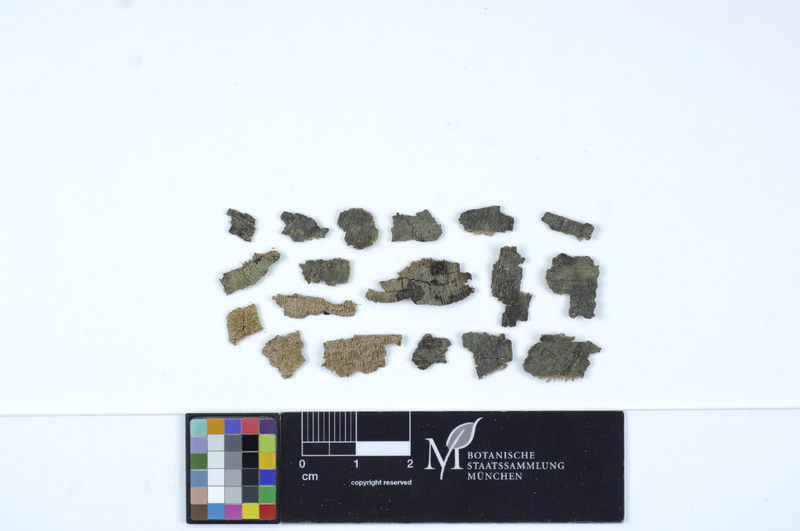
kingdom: Plantae
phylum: Tracheophyta
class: Magnoliopsida
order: Sapindales
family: Sapindaceae
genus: Acer
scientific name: Acer
